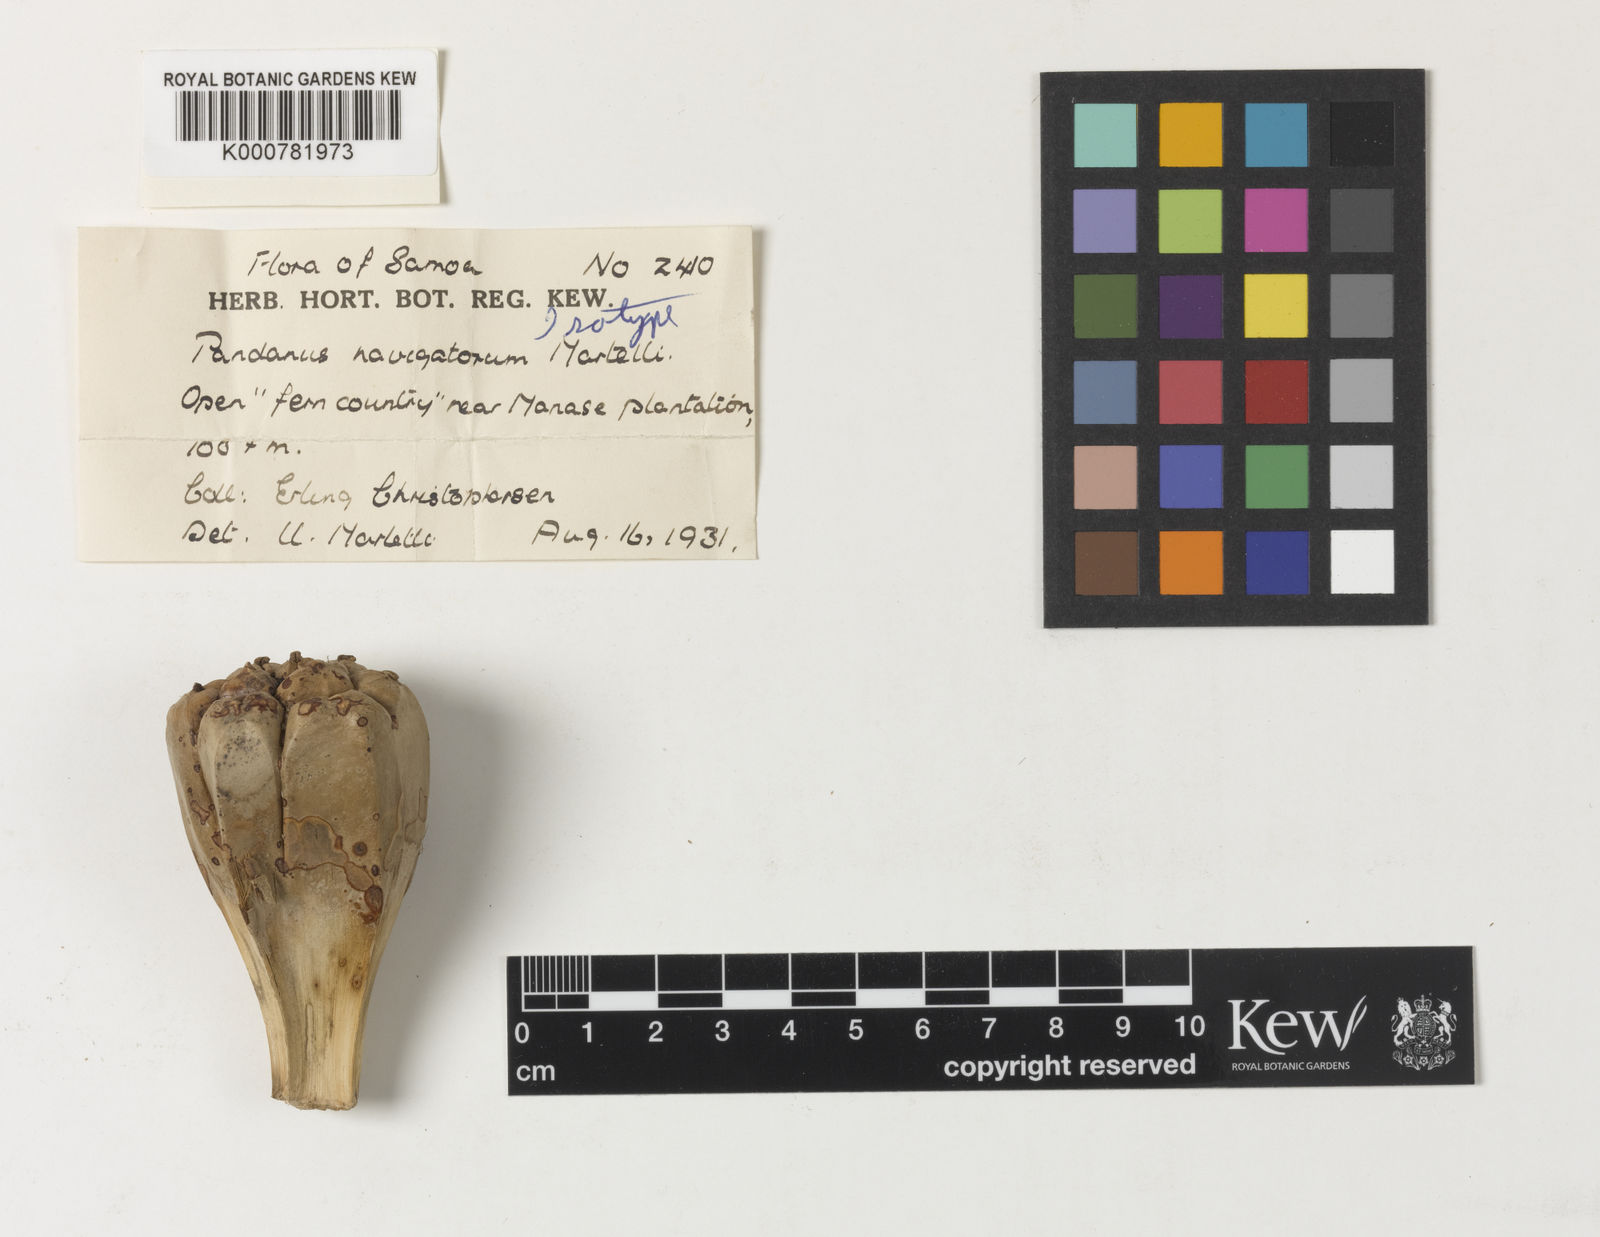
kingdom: Plantae
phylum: Tracheophyta
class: Liliopsida
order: Pandanales
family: Pandanaceae
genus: Pandanus
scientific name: Pandanus
